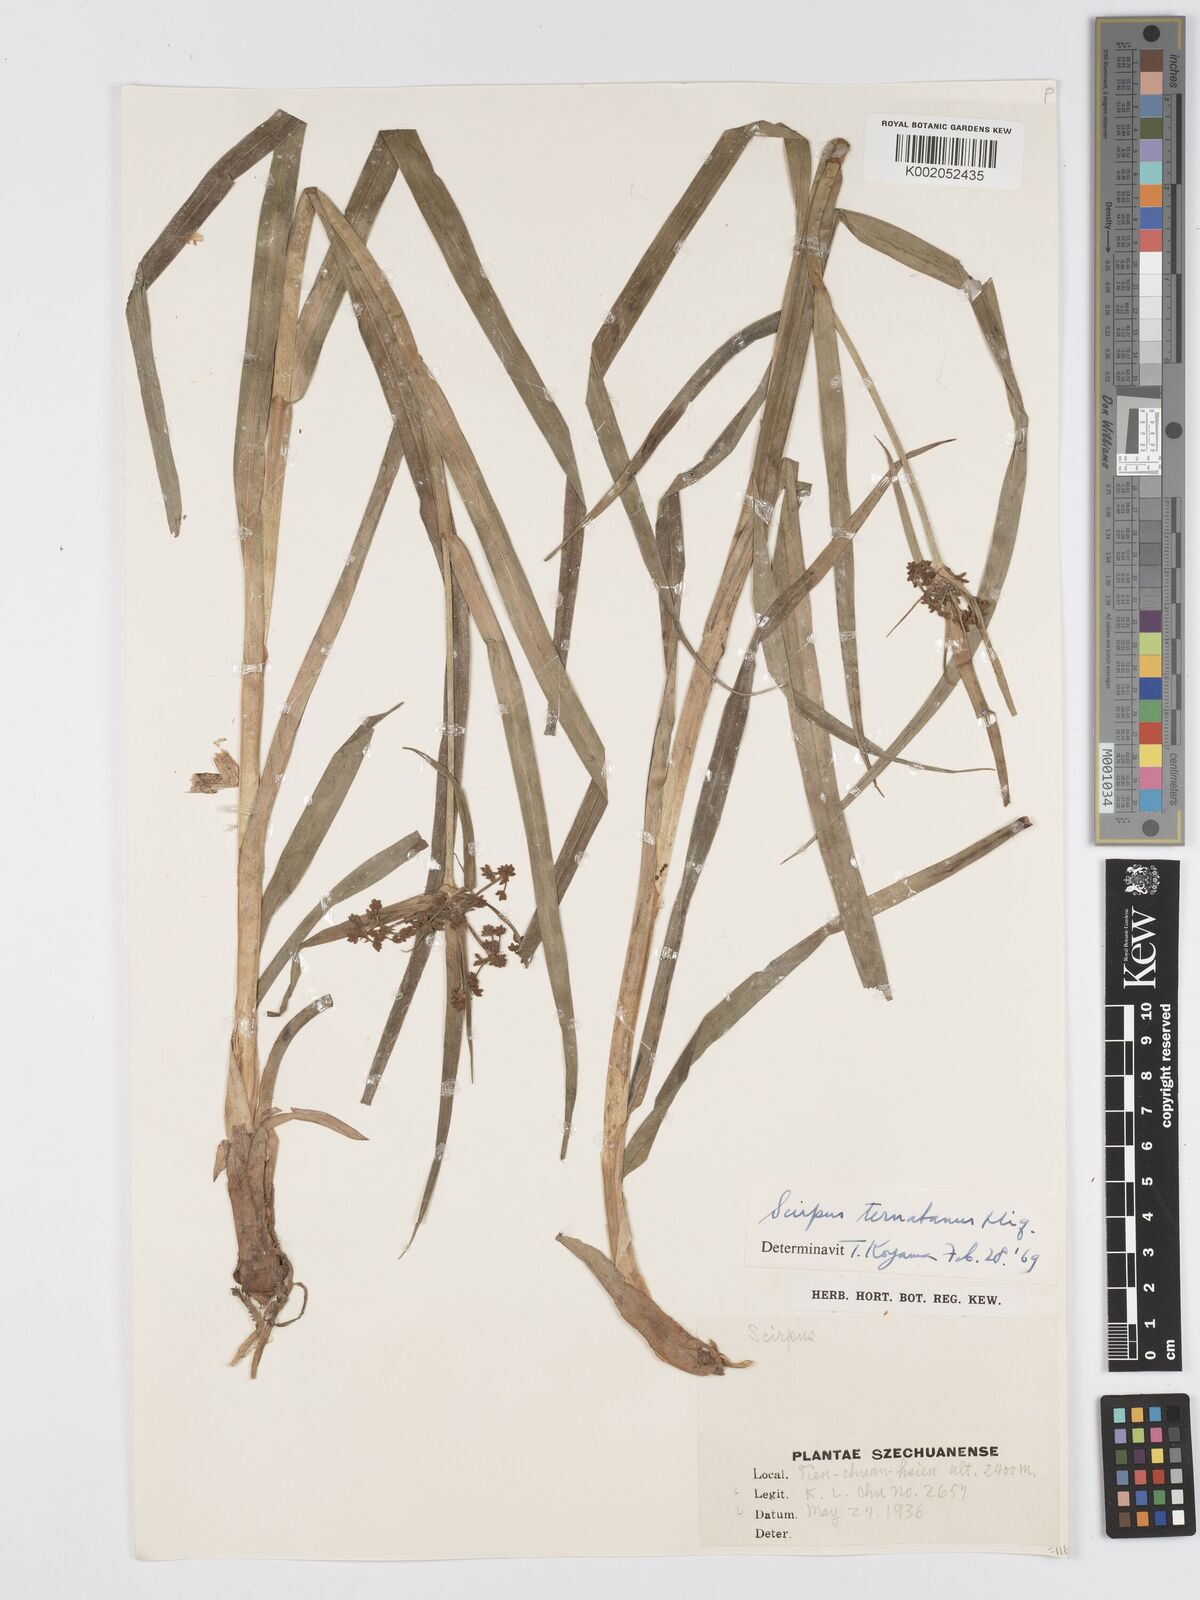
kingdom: Plantae
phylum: Tracheophyta
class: Liliopsida
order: Poales
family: Cyperaceae
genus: Scirpus
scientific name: Scirpus ternatanus
